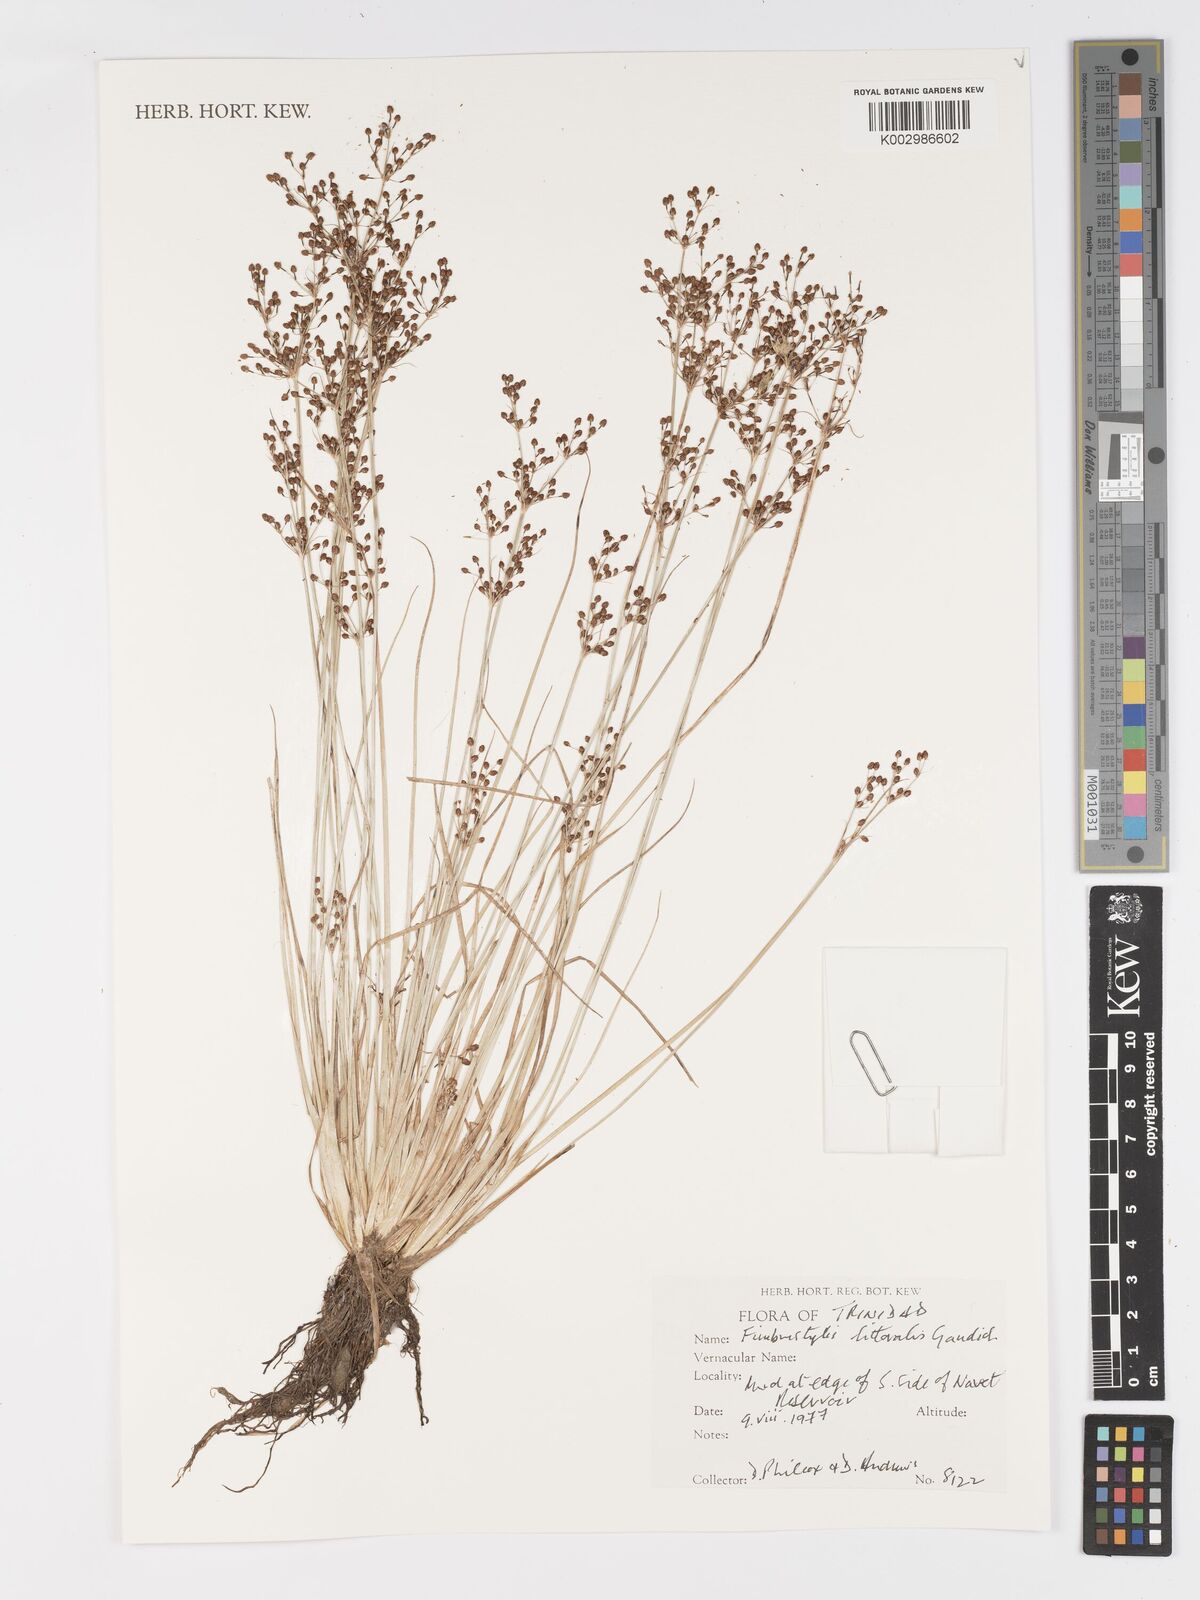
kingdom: Plantae
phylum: Tracheophyta
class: Liliopsida
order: Poales
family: Cyperaceae
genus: Fimbristylis
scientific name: Fimbristylis littoralis
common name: Fimbry
